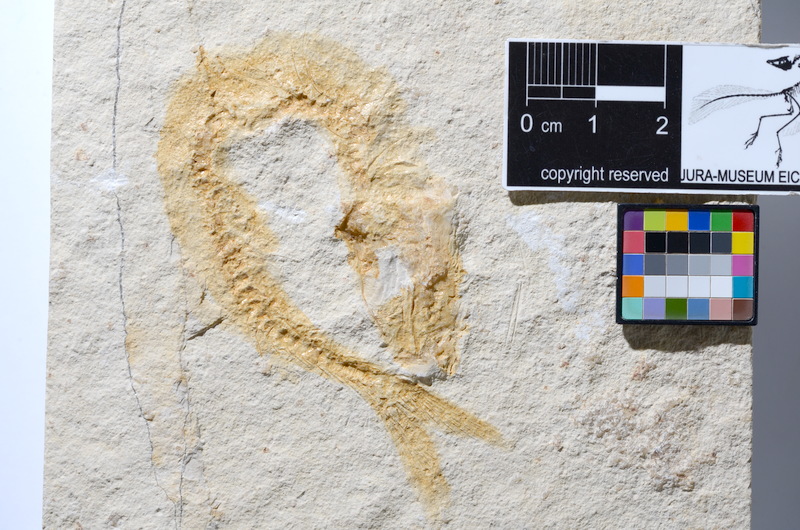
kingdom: Animalia
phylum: Chordata
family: Ascalaboidae
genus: Tharsis
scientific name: Tharsis dubius
